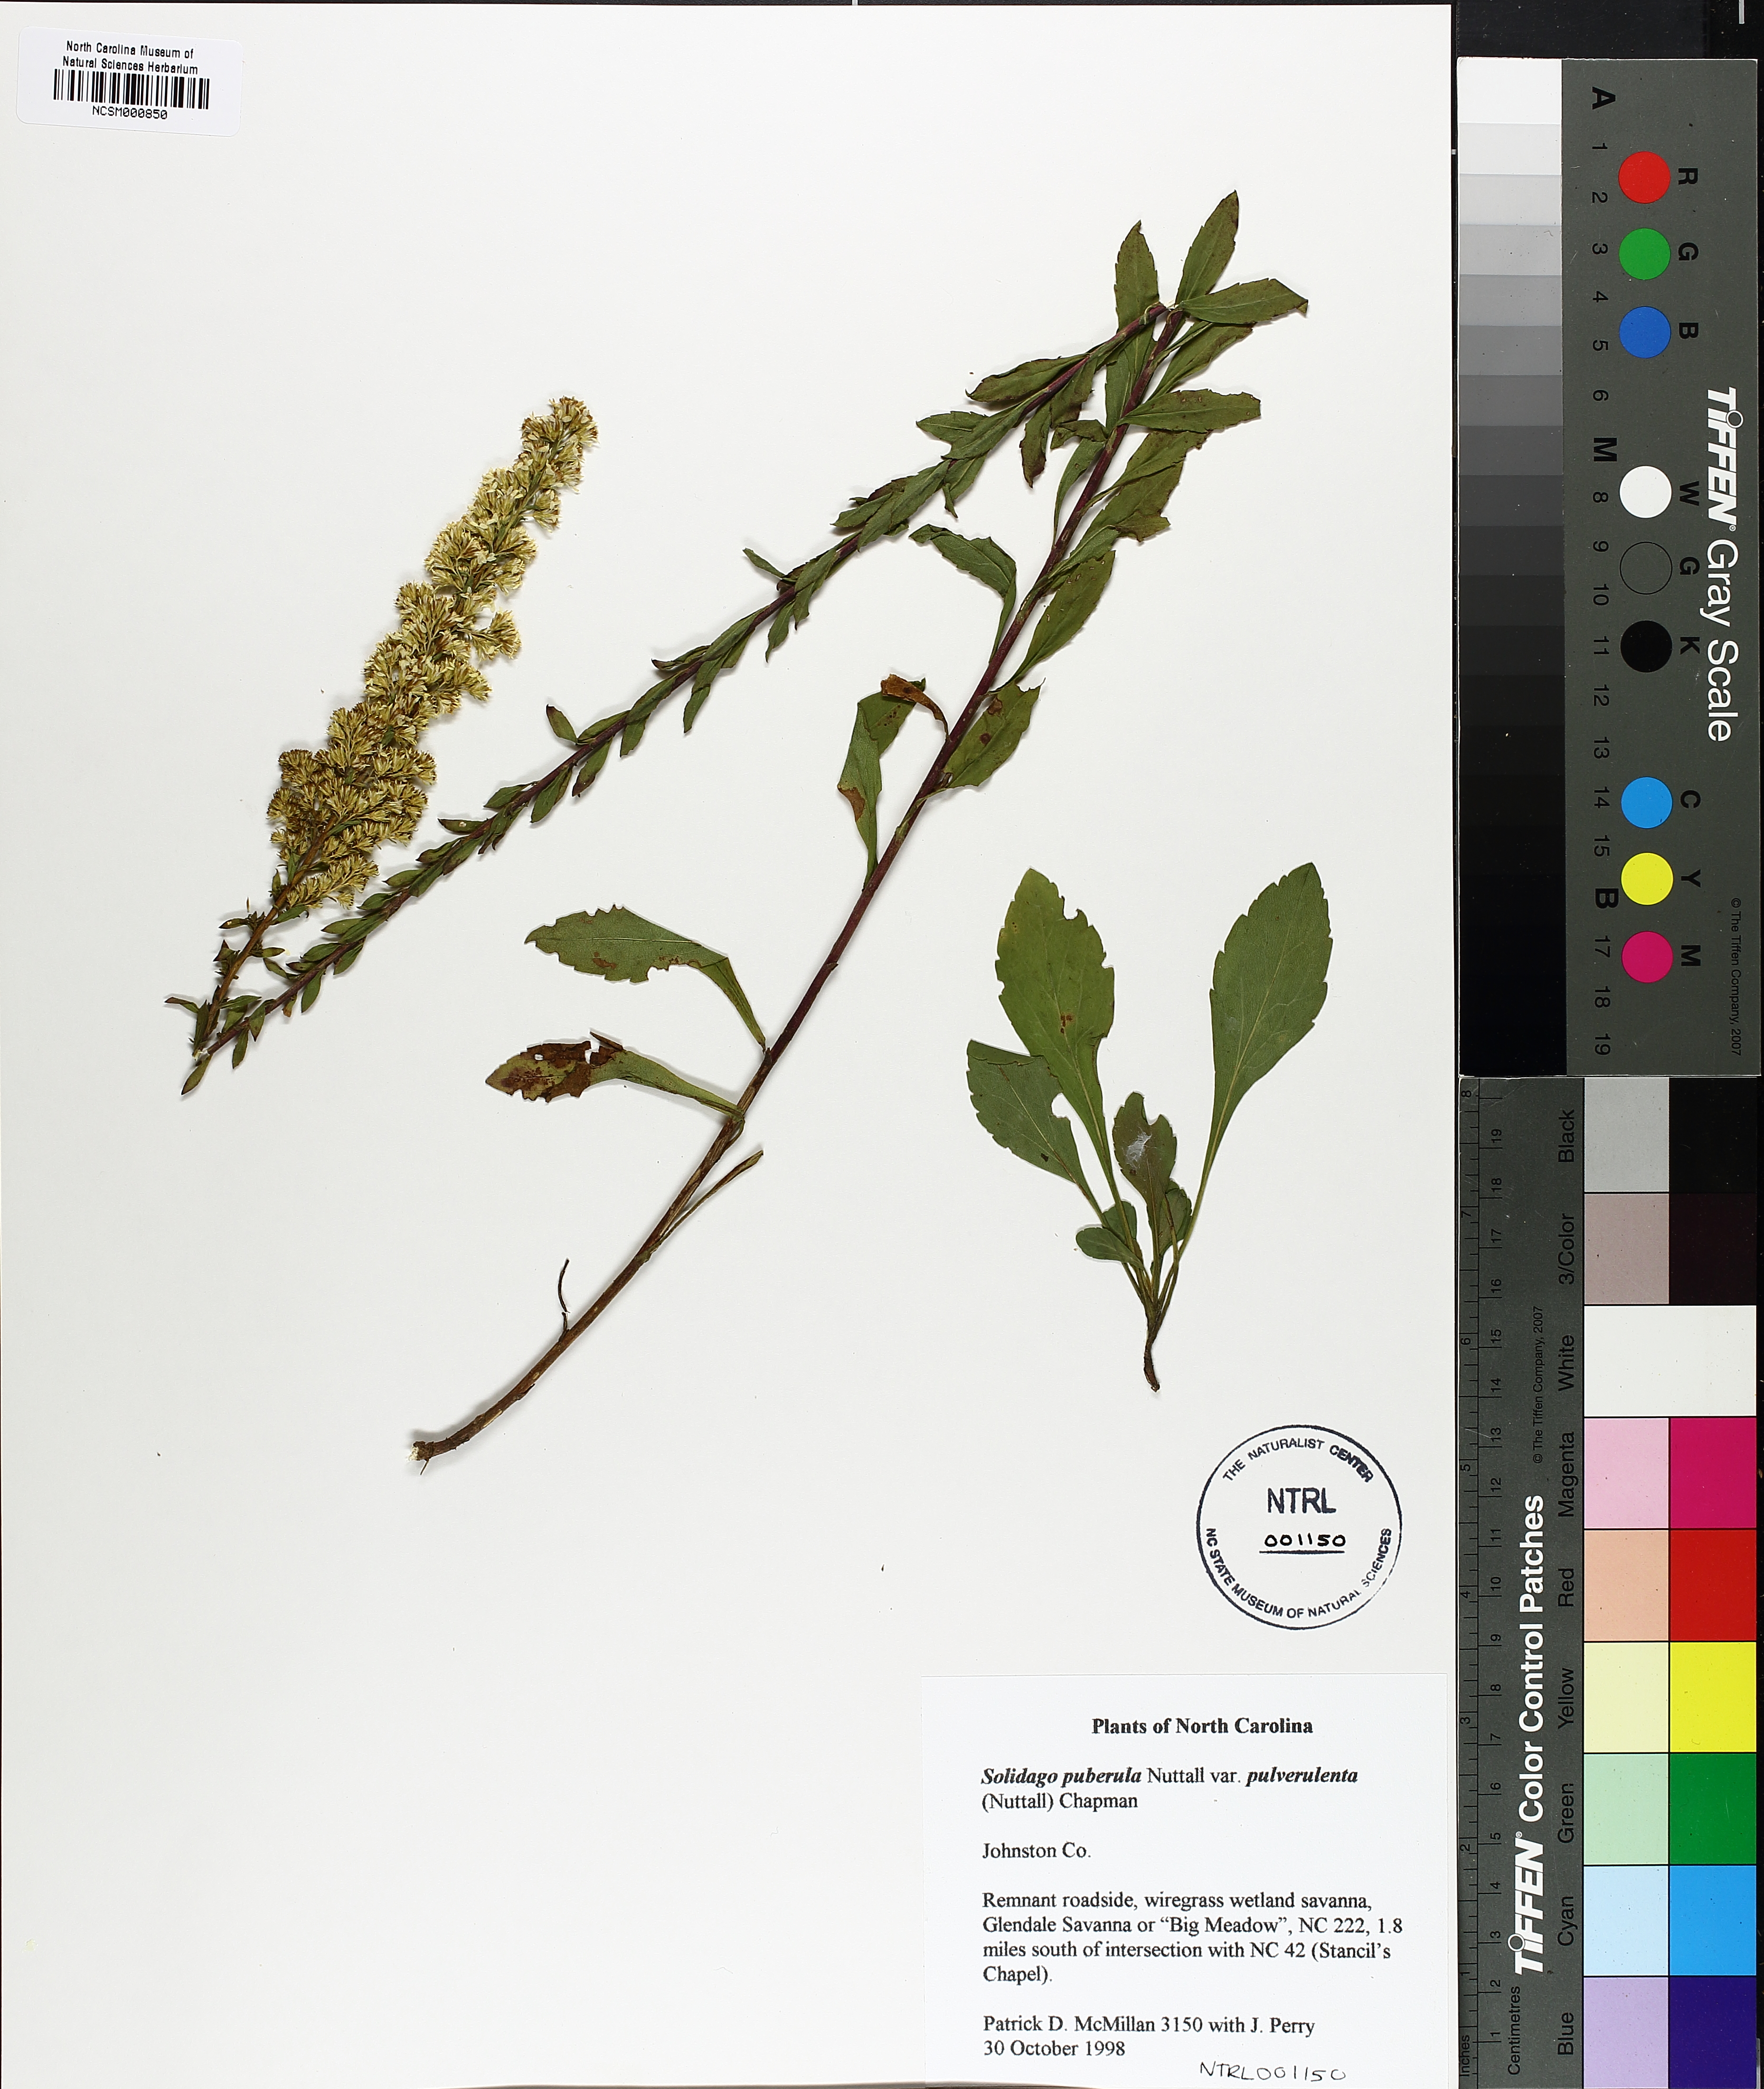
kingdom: Plantae
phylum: Tracheophyta
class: Magnoliopsida
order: Asterales
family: Asteraceae
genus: Solidago
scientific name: Solidago pulverulenta
